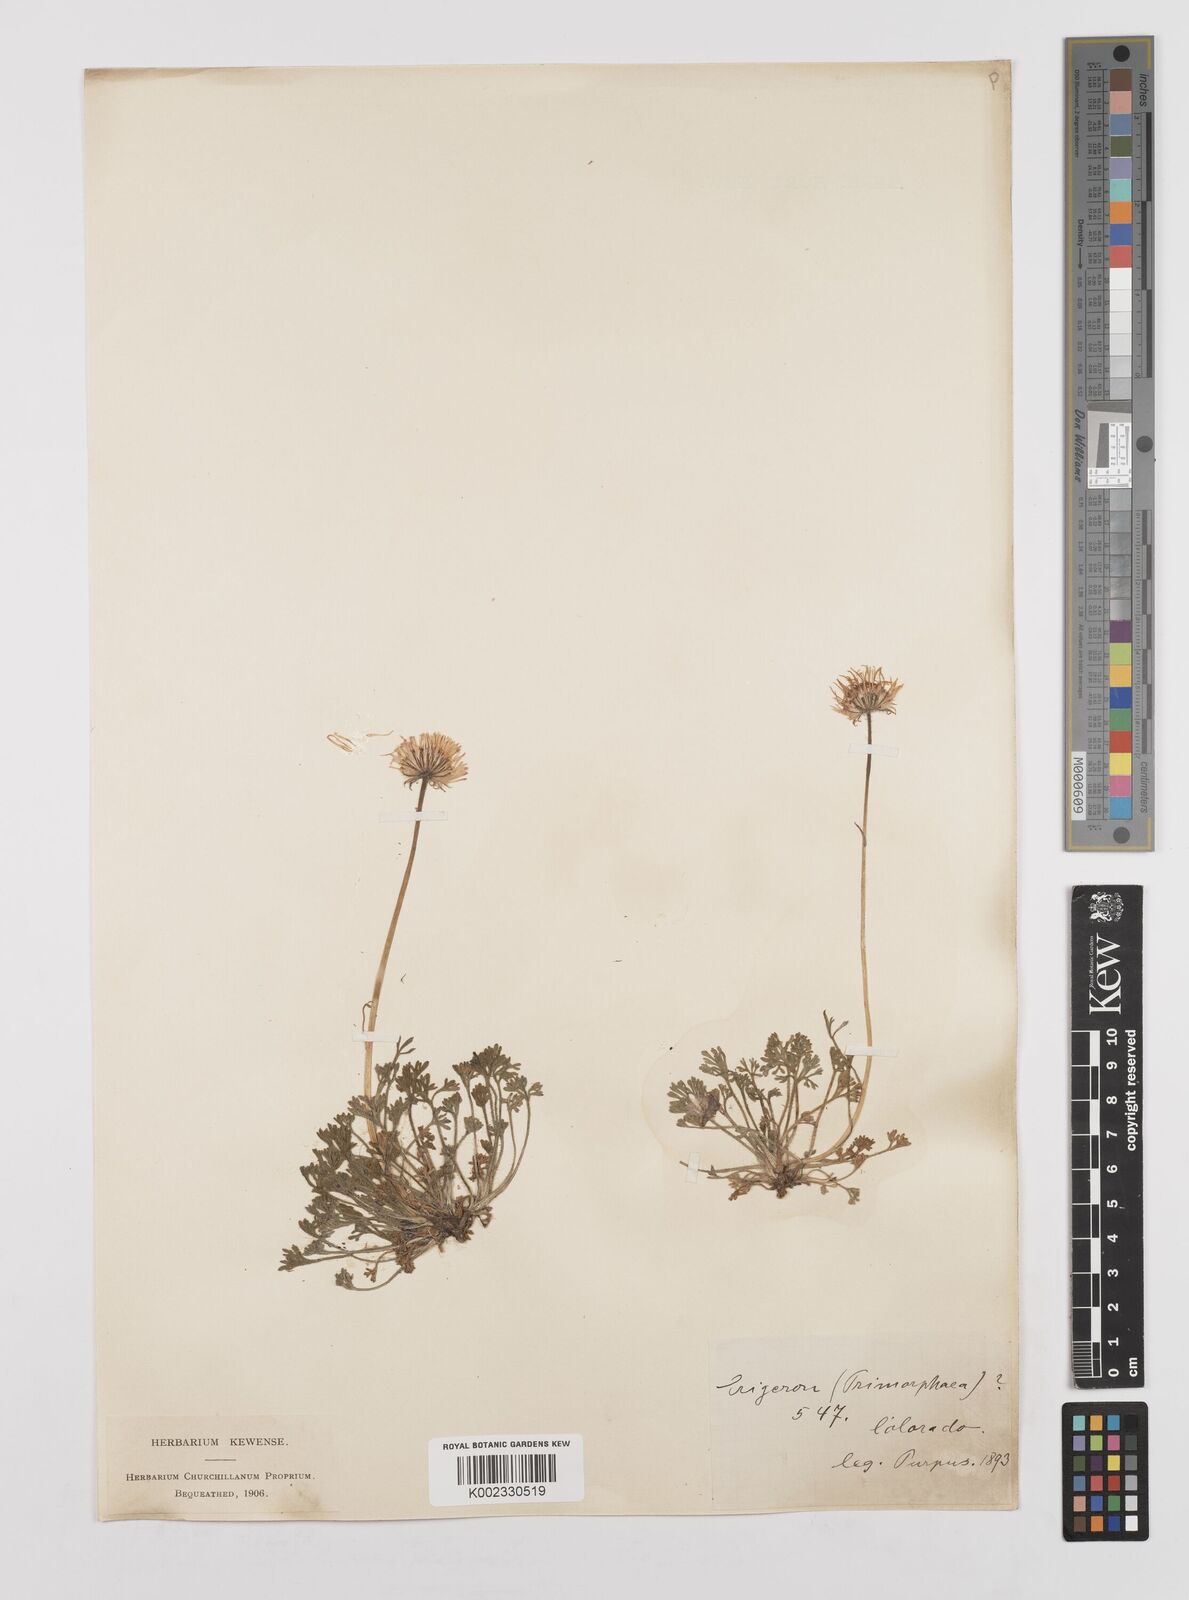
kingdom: Plantae
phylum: Tracheophyta
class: Magnoliopsida
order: Asterales
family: Asteraceae
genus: Erigeron
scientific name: Erigeron compositus
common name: Dwarf mountain fleabane
